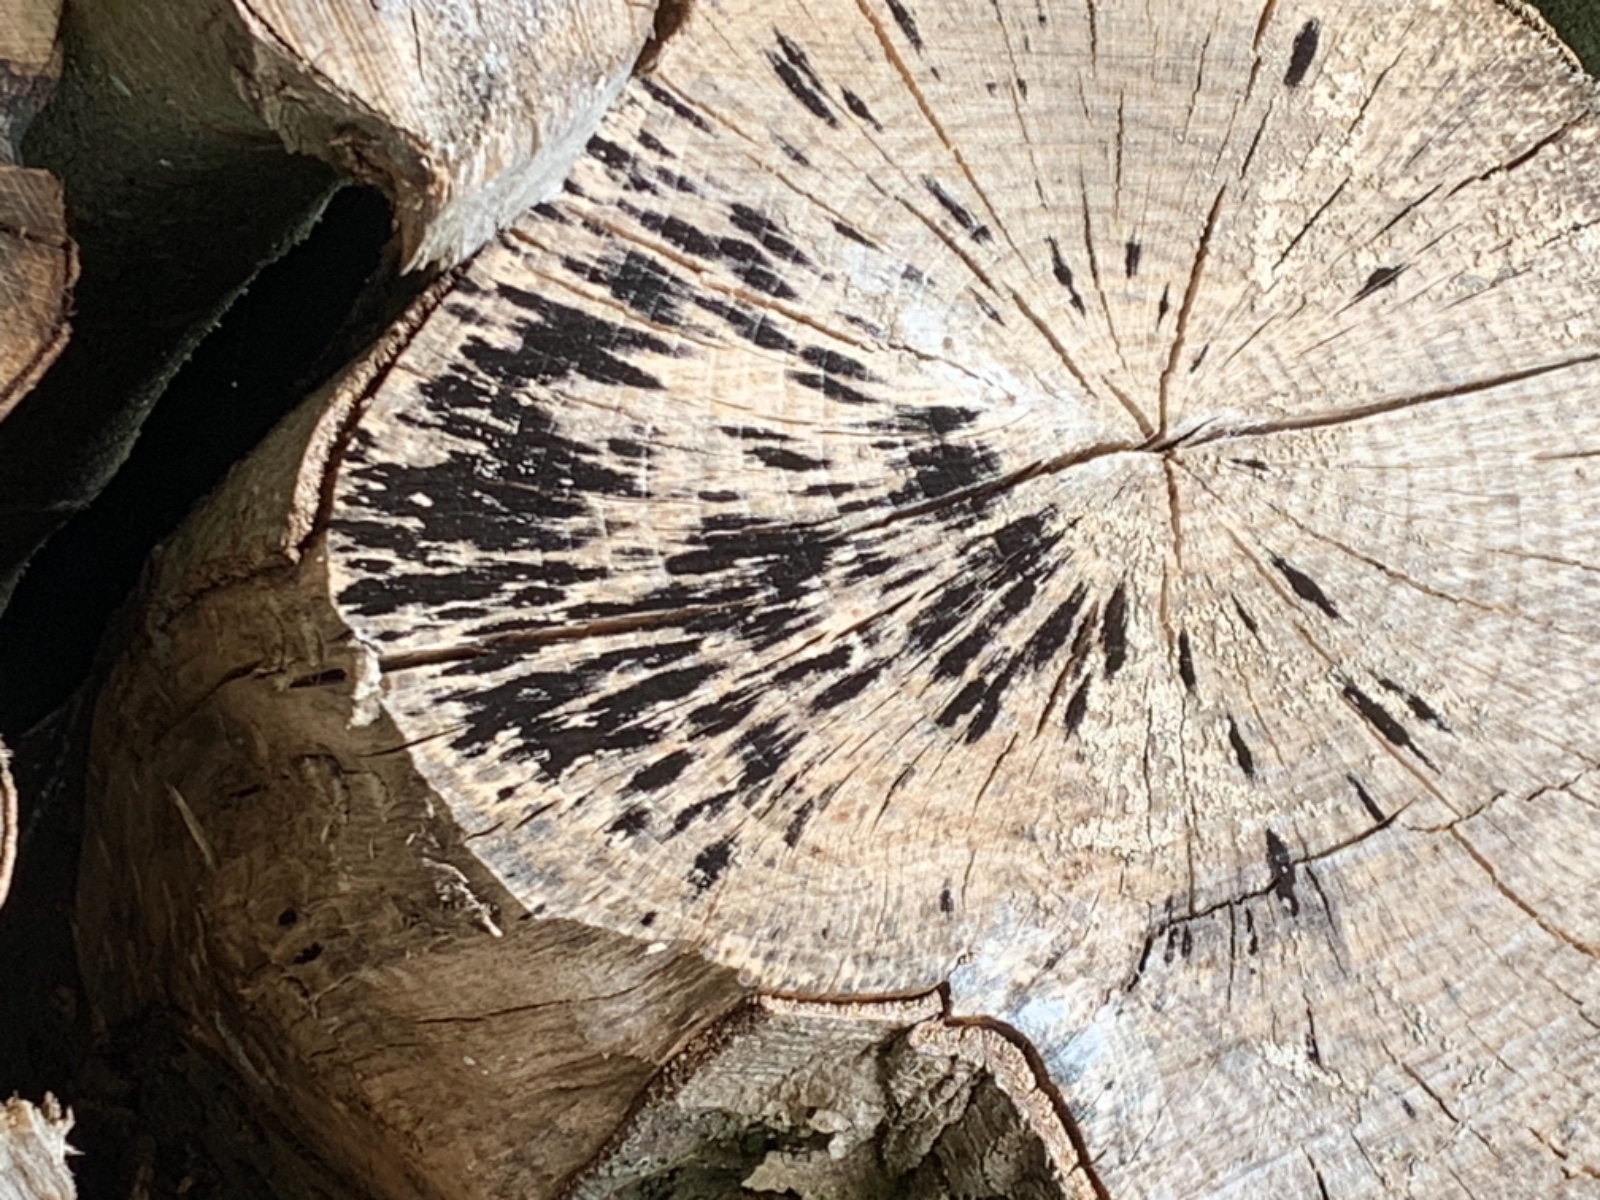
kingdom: Fungi
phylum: Ascomycota
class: Leotiomycetes
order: Helotiales
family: Helotiaceae
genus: Bispora
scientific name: Bispora pallescens
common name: måtte-snitskive
